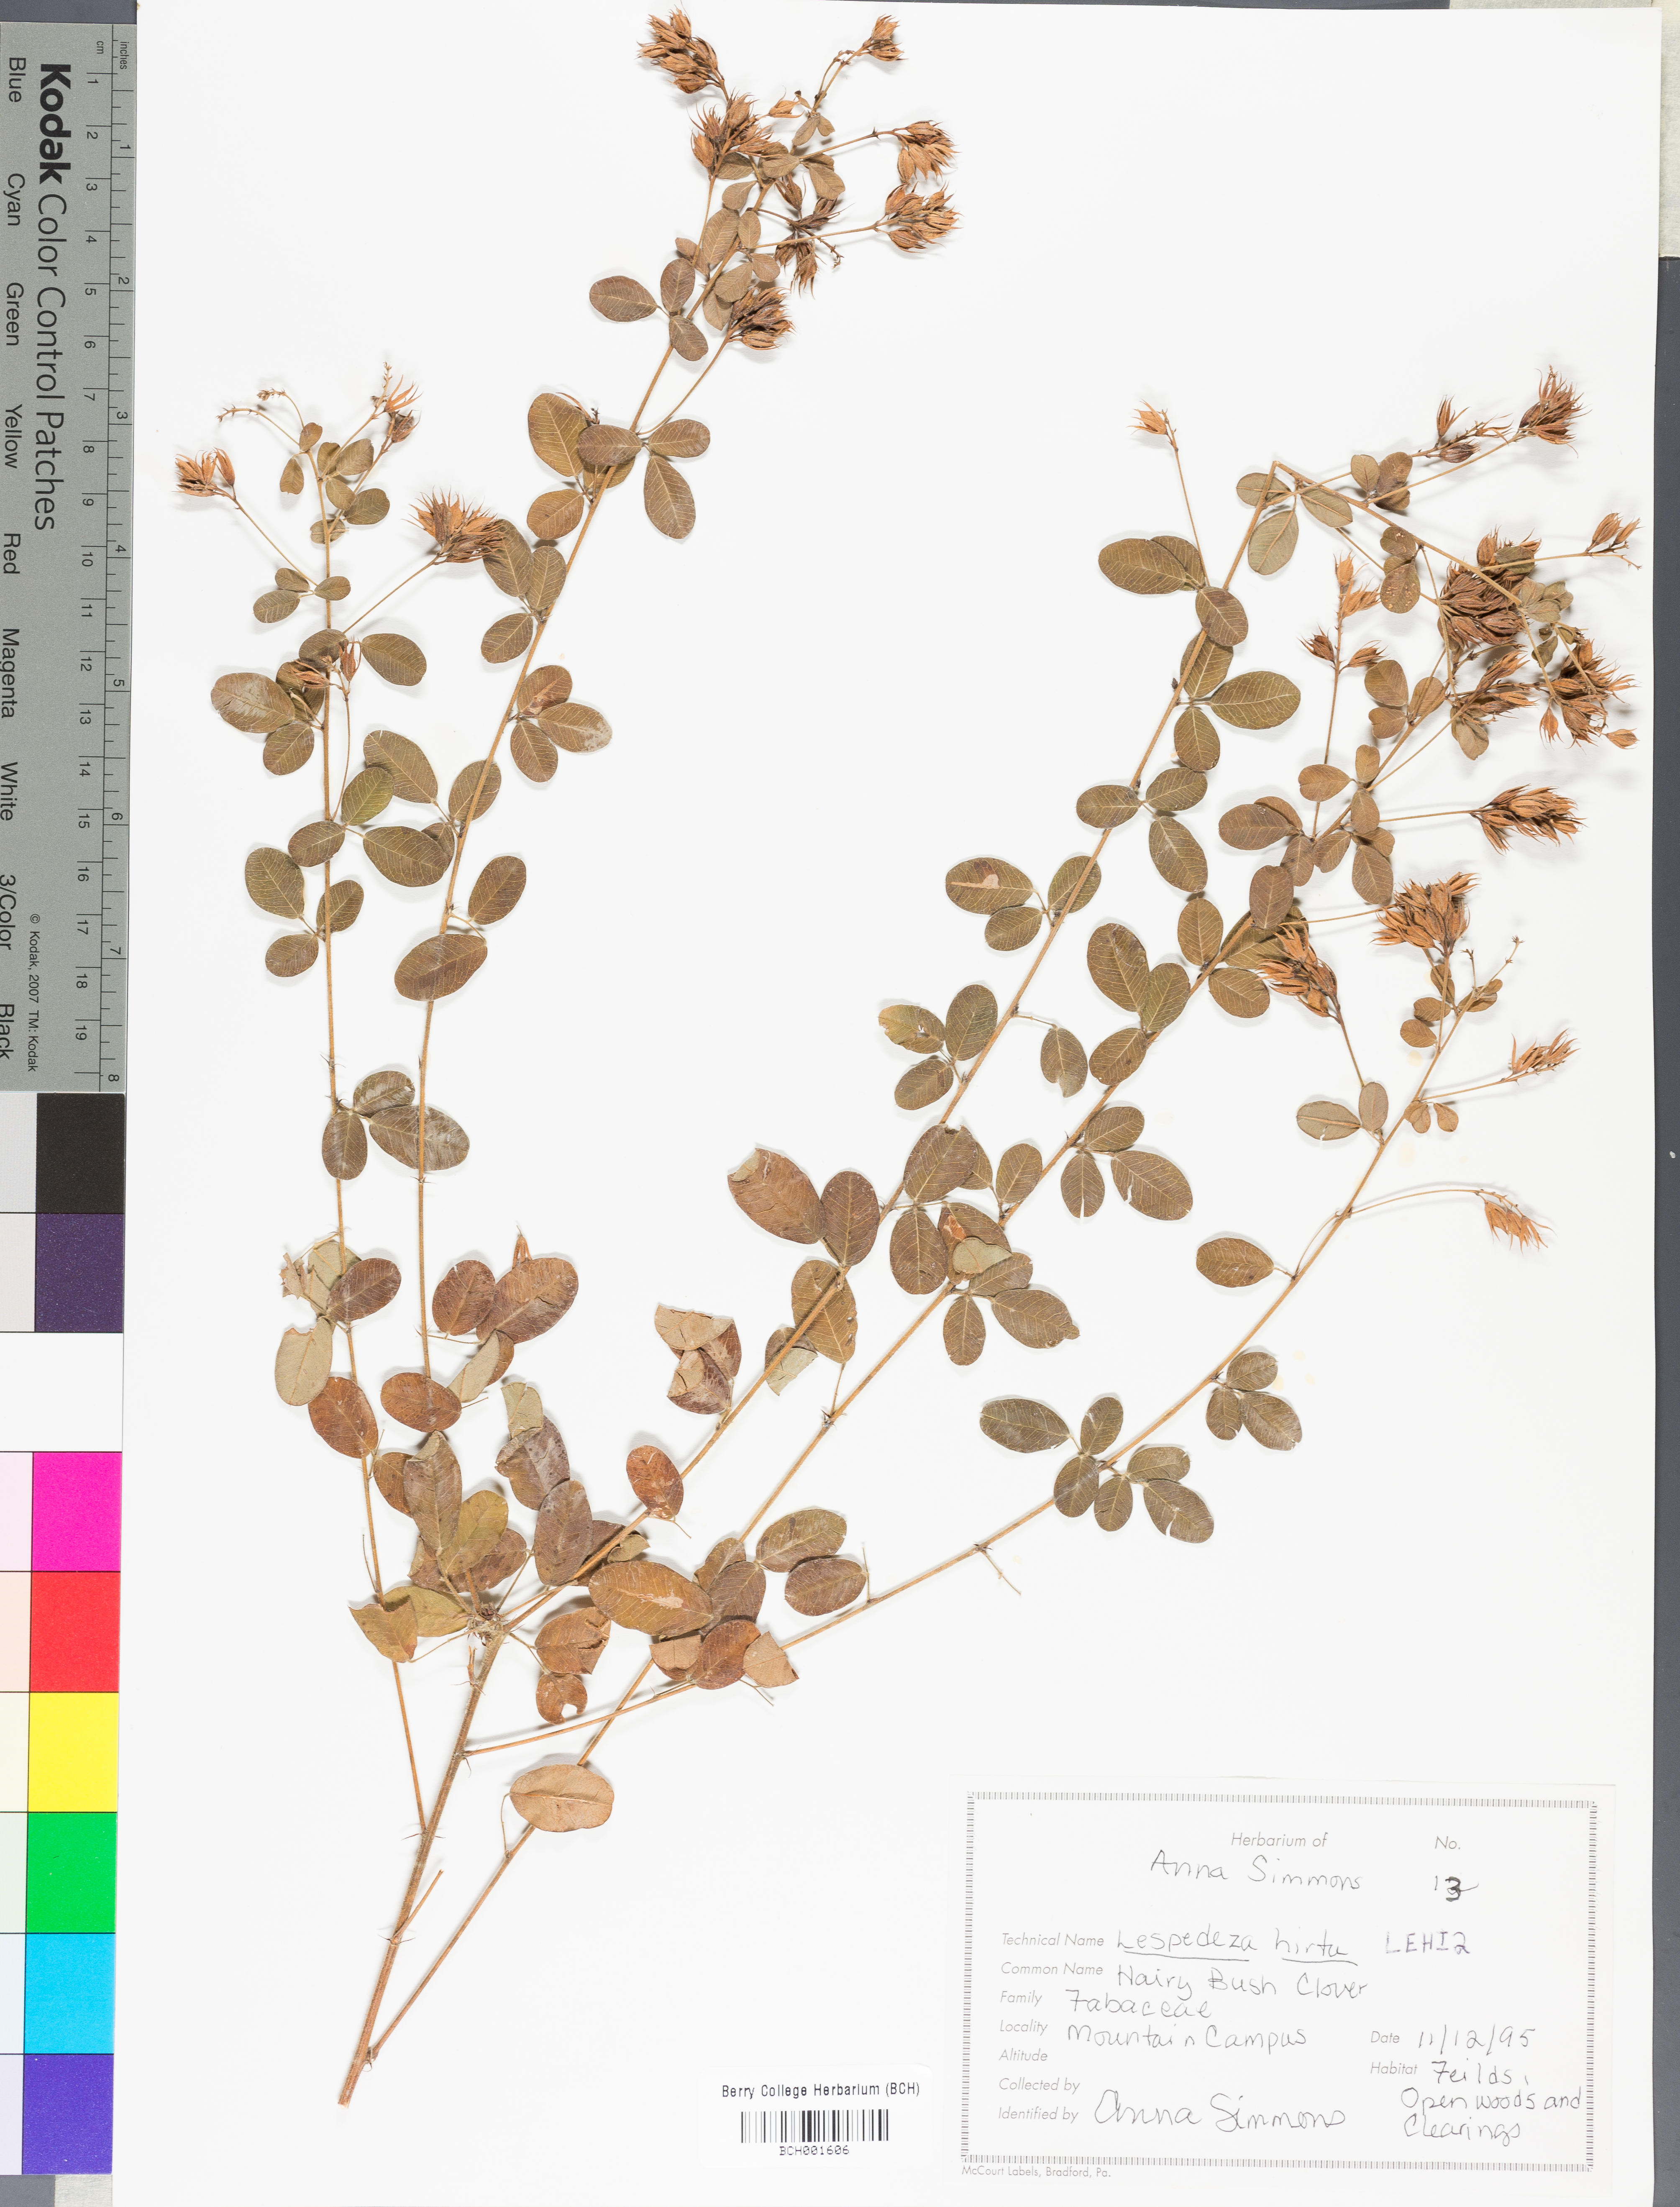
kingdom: Plantae
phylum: Tracheophyta
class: Magnoliopsida
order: Fabales
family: Fabaceae
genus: Lespedeza
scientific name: Lespedeza hirta
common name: Hairy lespedeza
